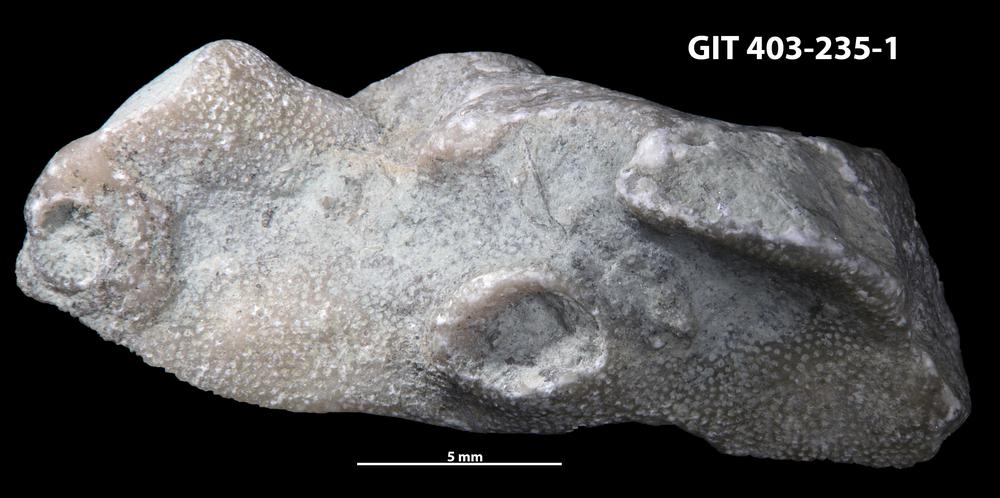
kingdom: Animalia
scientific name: Animalia
